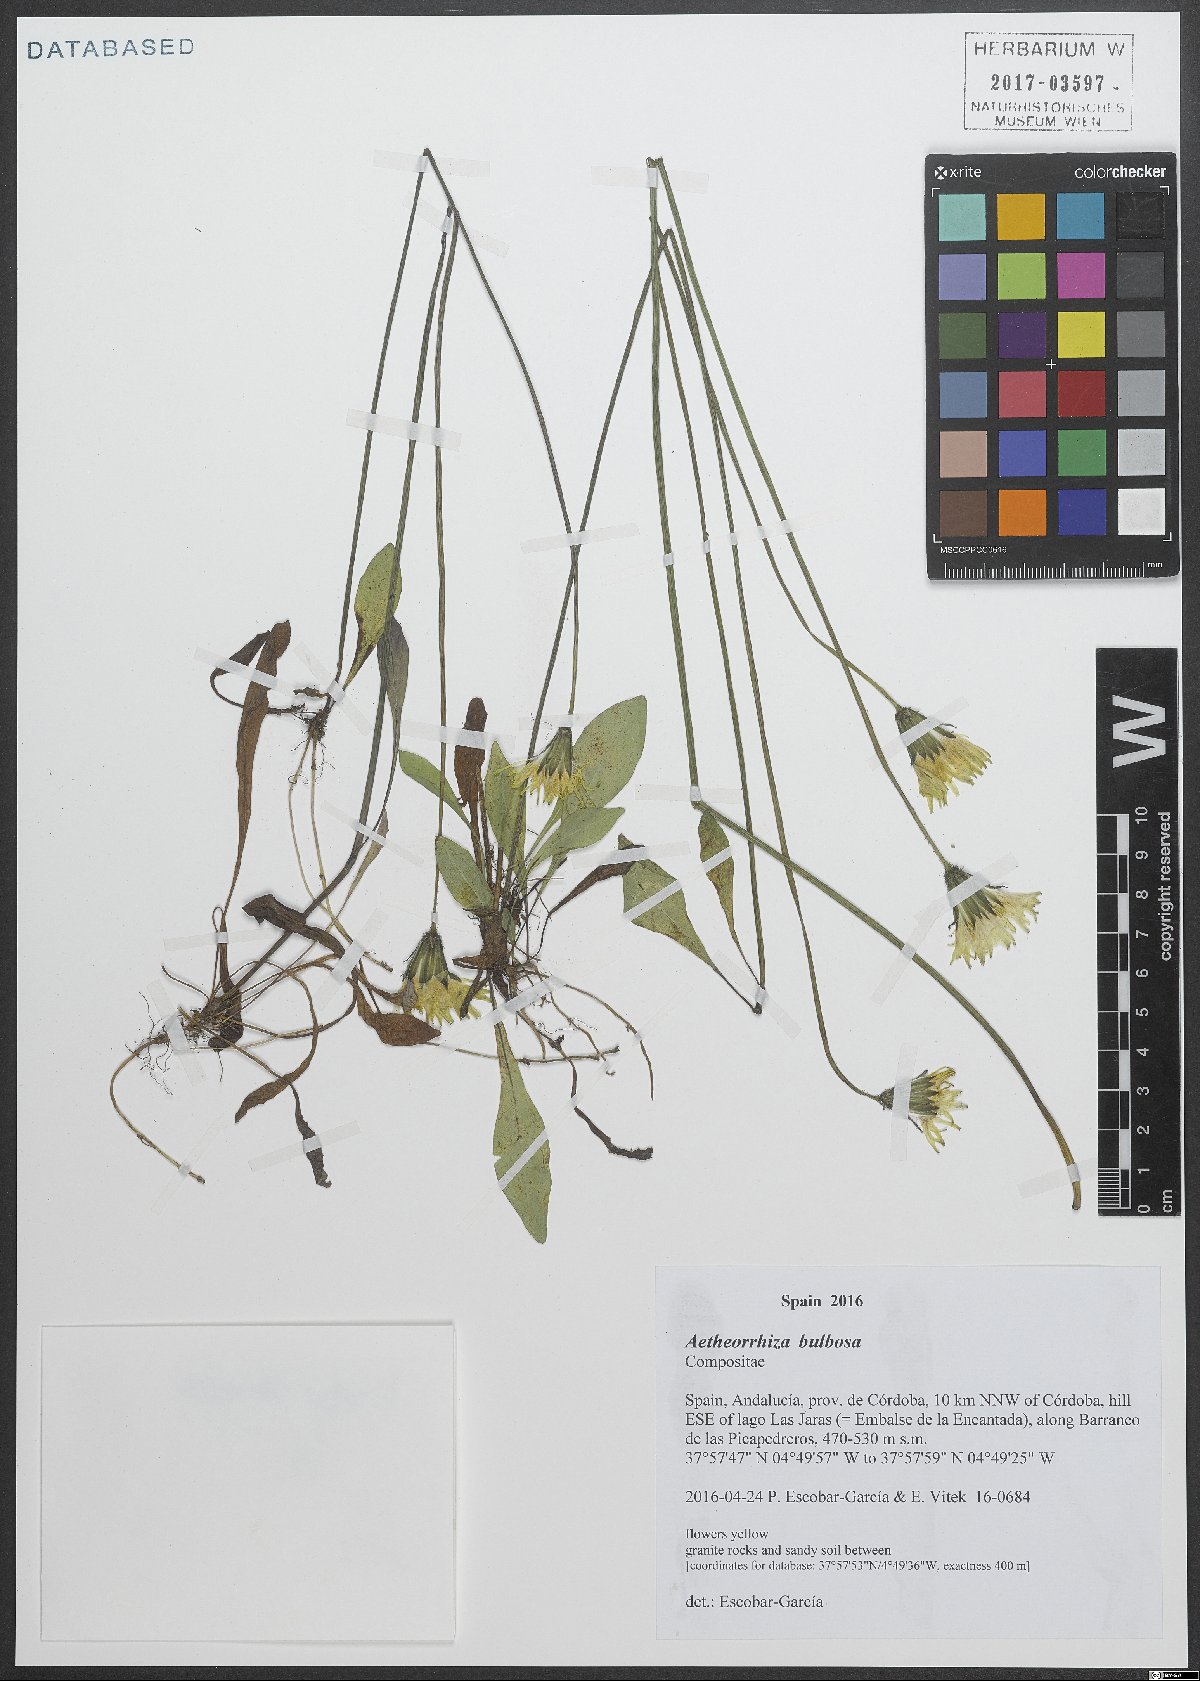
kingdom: Plantae
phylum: Tracheophyta
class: Magnoliopsida
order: Asterales
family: Asteraceae
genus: Aetheorhiza
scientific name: Aetheorhiza bulbosa
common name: Tuberous hawk's-beard
